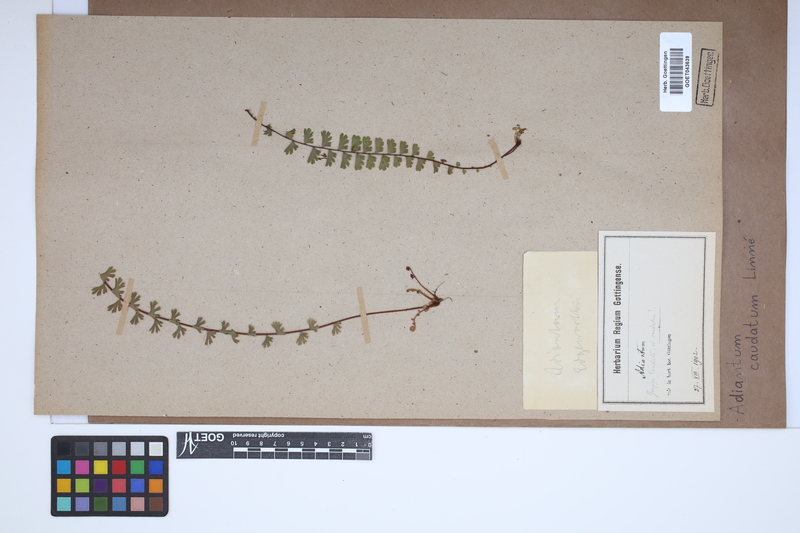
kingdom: Plantae
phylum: Tracheophyta
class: Polypodiopsida
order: Polypodiales
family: Pteridaceae
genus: Adiantum
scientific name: Adiantum caudatum
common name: Tailed maidenhair
